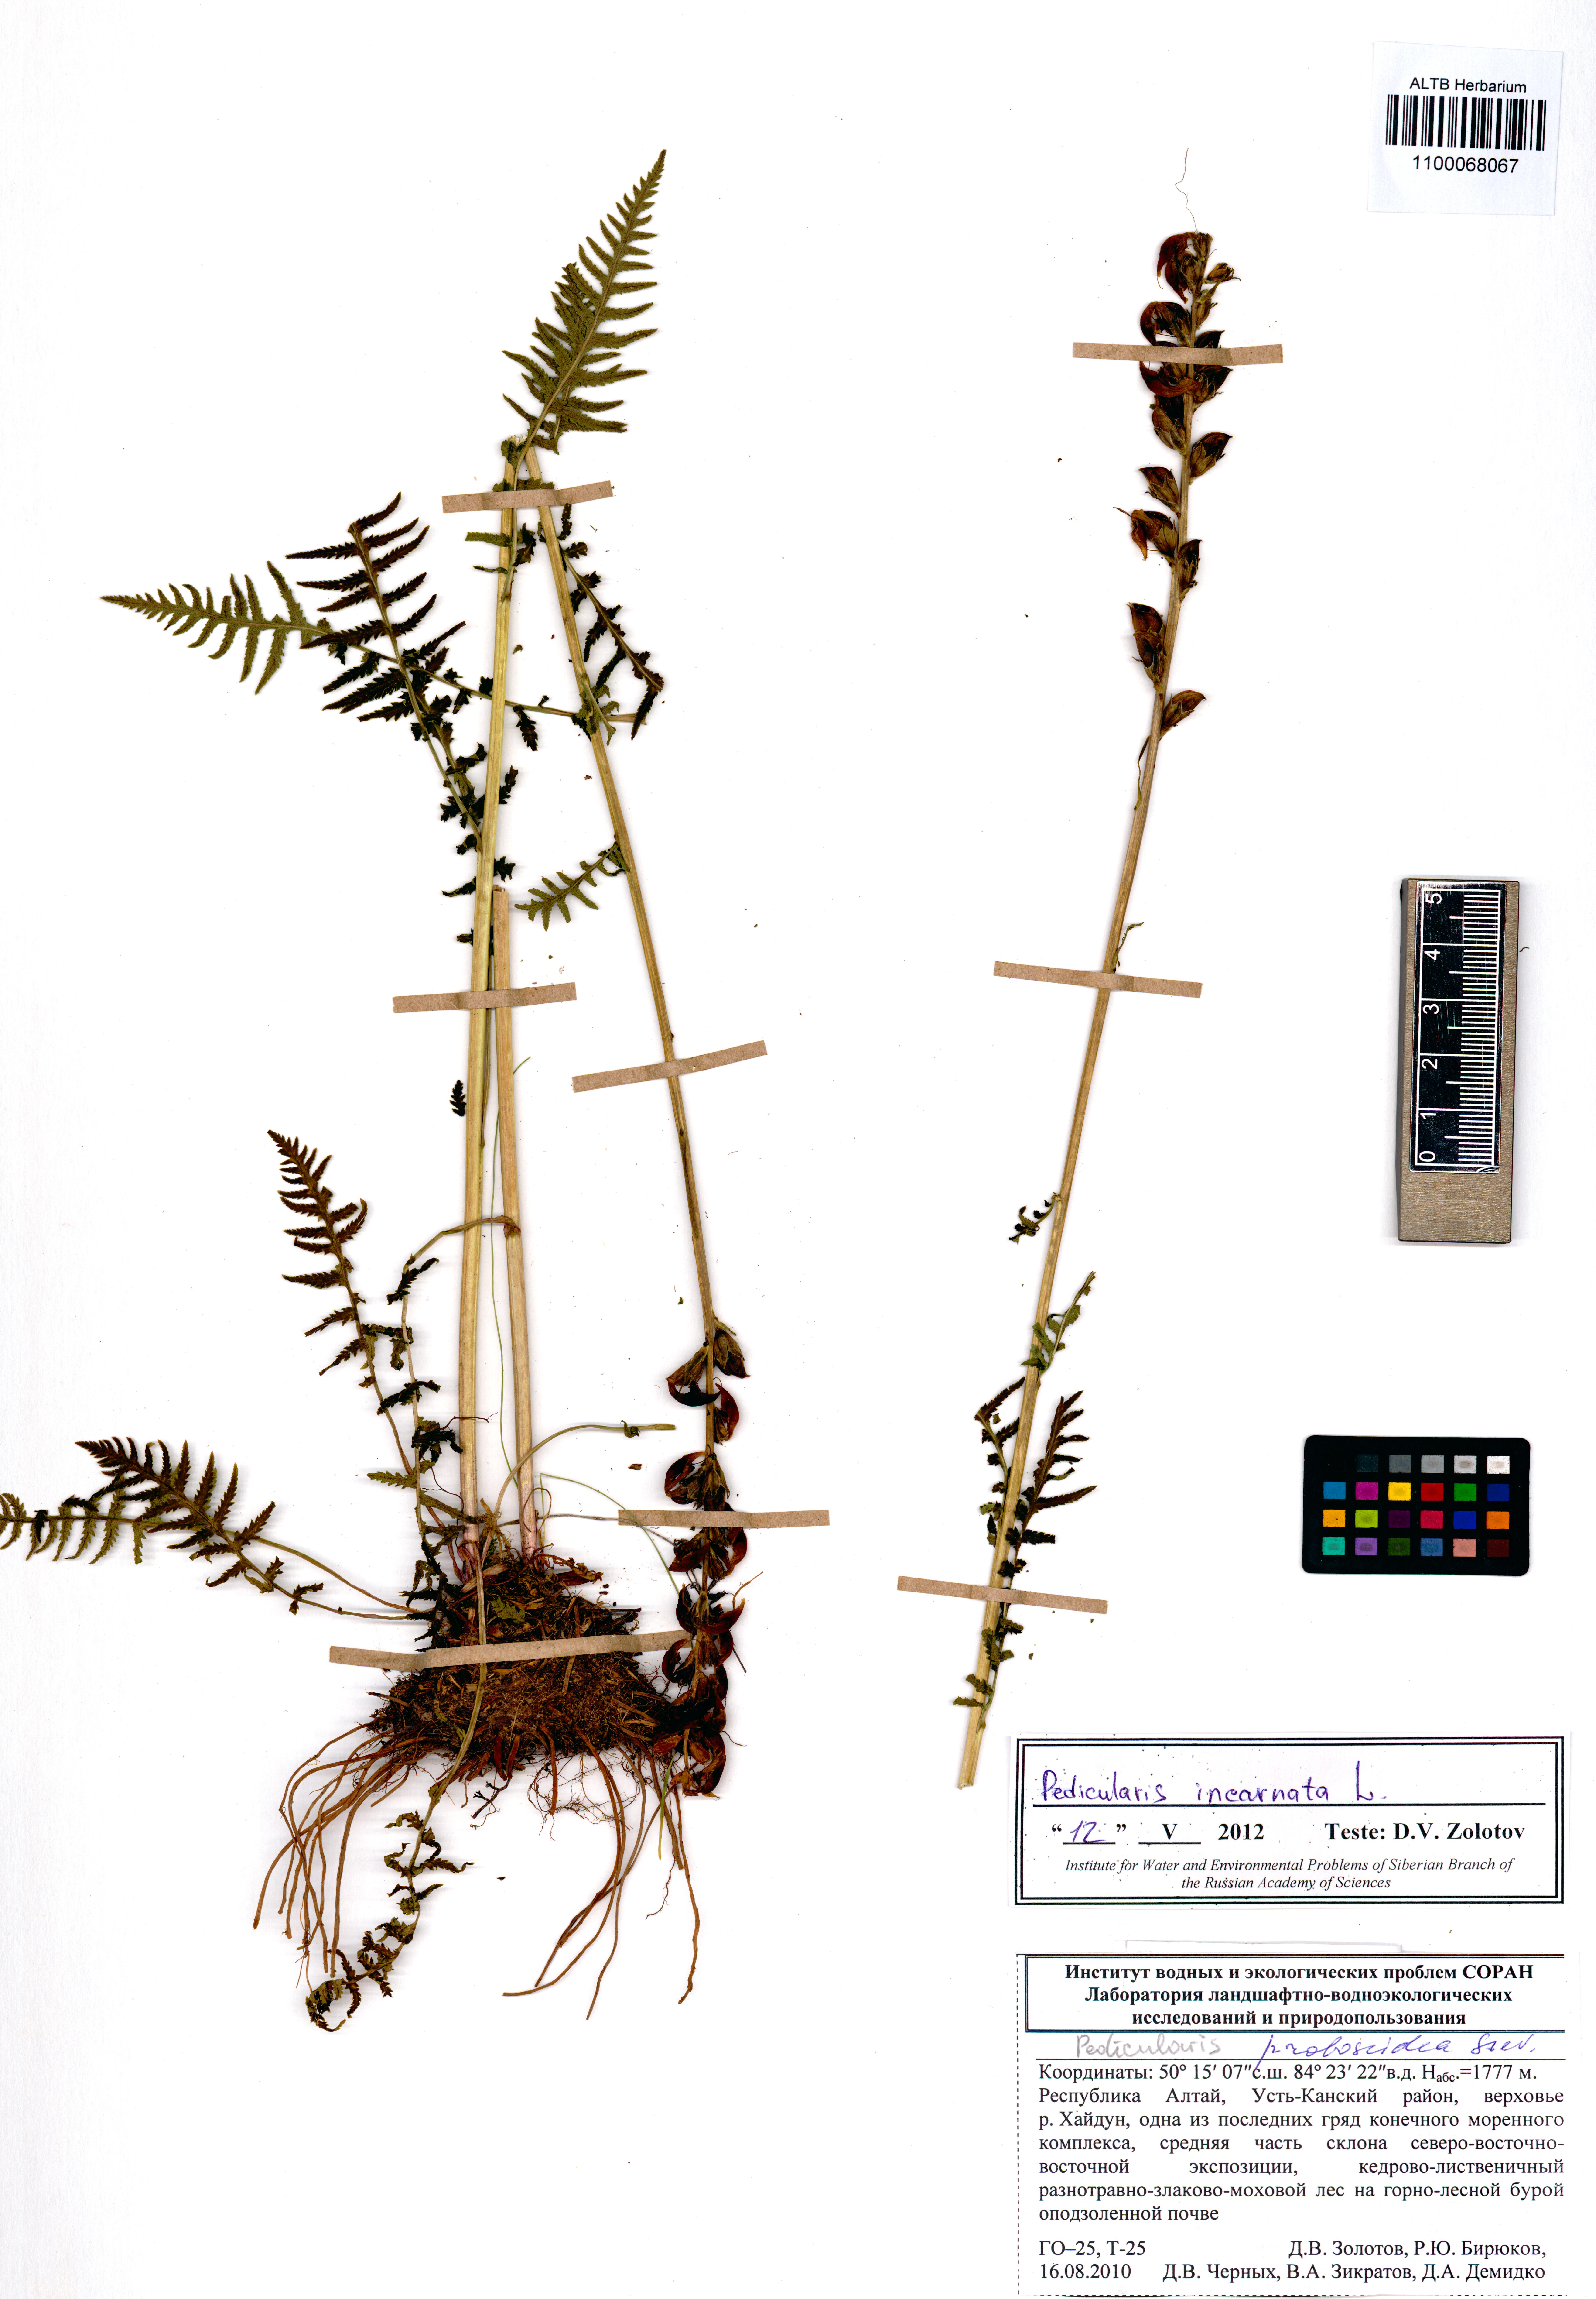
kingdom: Plantae
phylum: Tracheophyta
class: Magnoliopsida
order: Lamiales
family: Orobanchaceae
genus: Pedicularis
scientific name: Pedicularis incarnata
